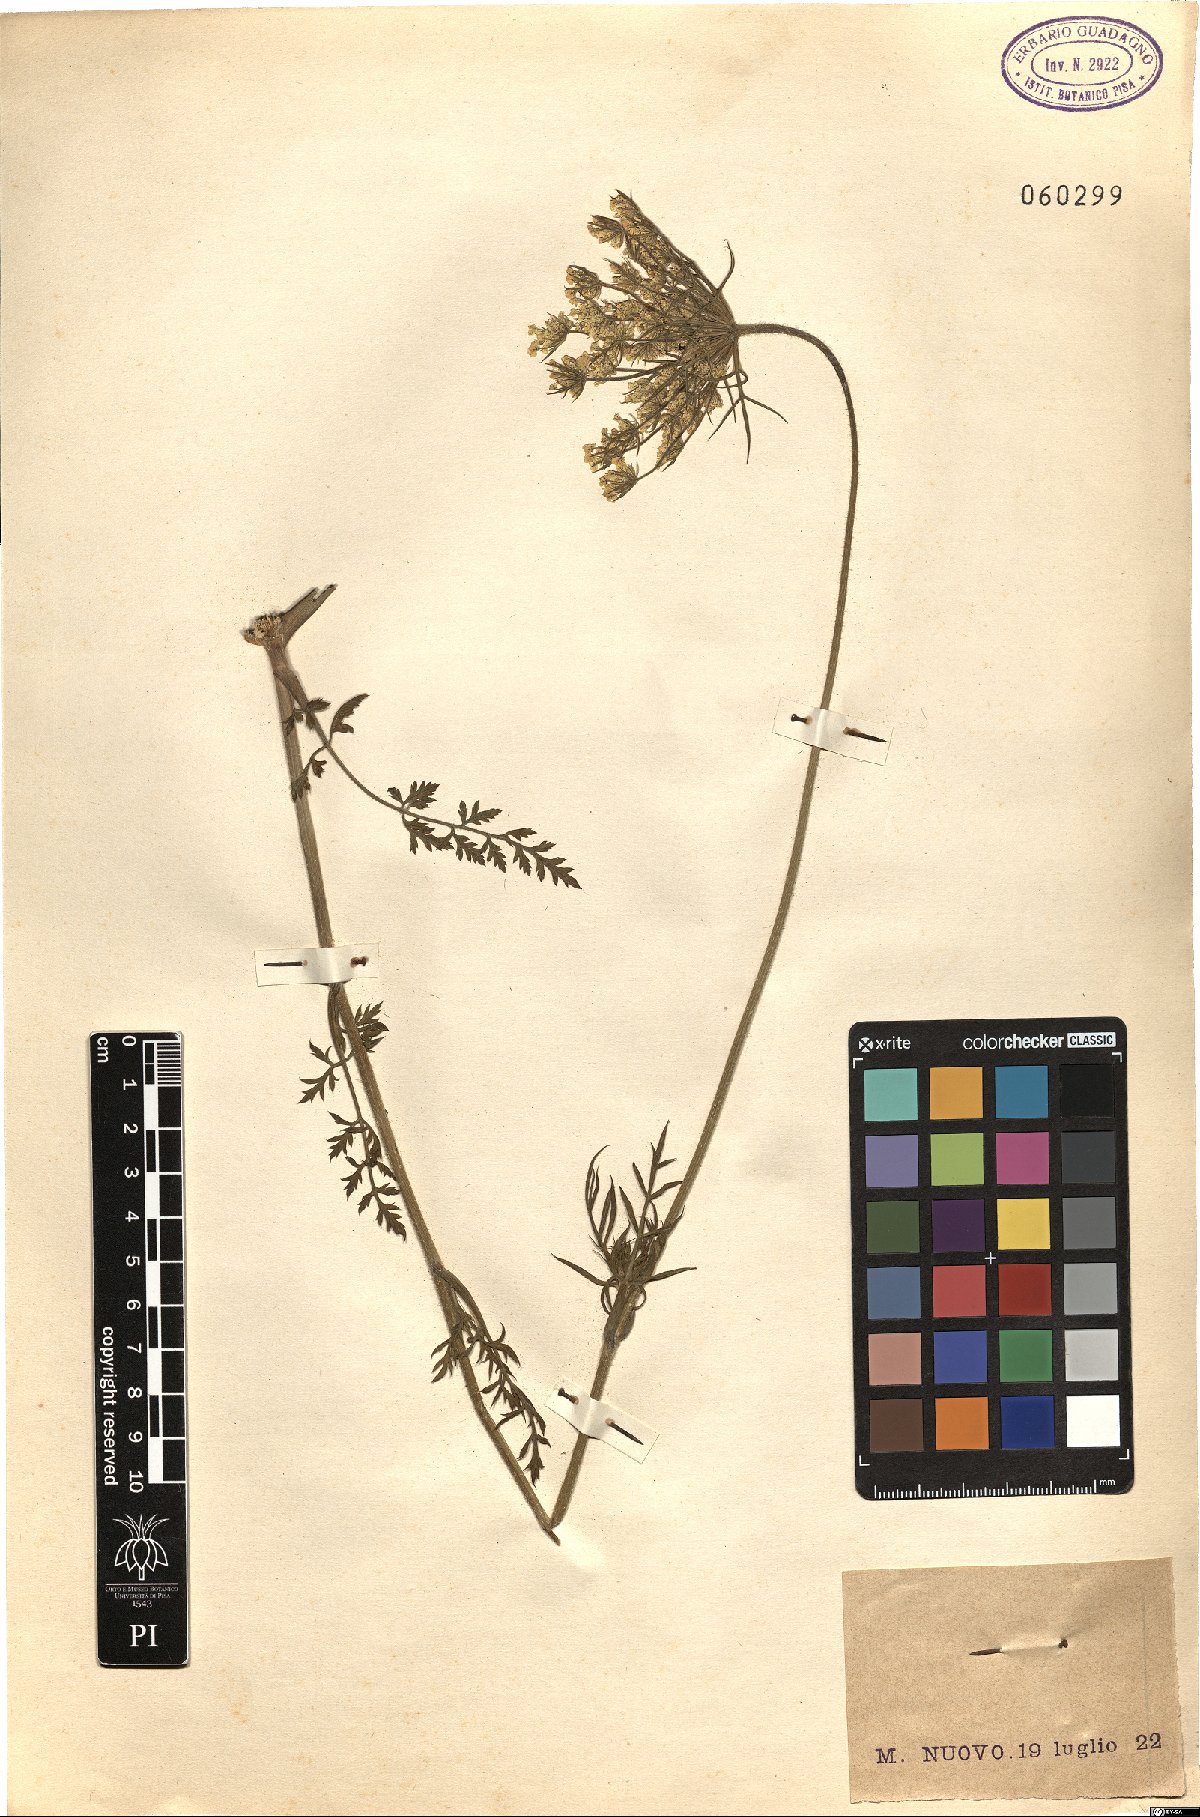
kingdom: Plantae
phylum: Tracheophyta
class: Magnoliopsida
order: Apiales
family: Apiaceae
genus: Daucus
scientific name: Daucus
